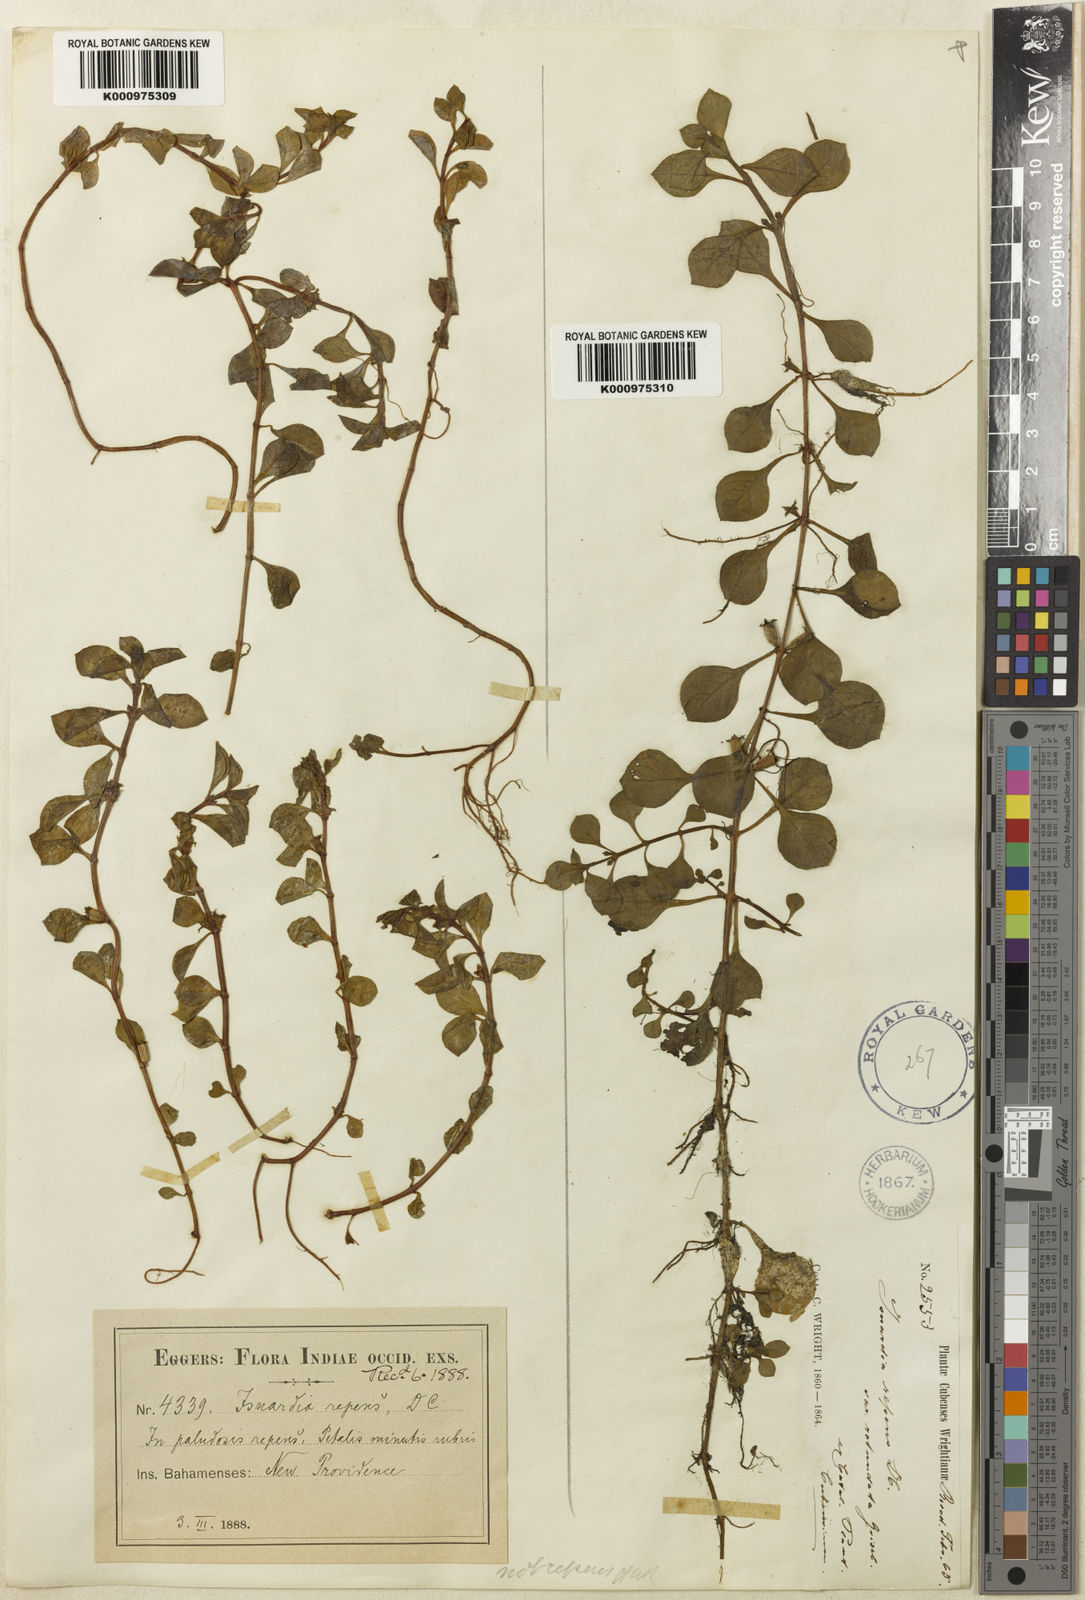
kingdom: Plantae
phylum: Tracheophyta
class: Magnoliopsida
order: Myrtales
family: Onagraceae
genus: Ludwigia
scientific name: Ludwigia repens
